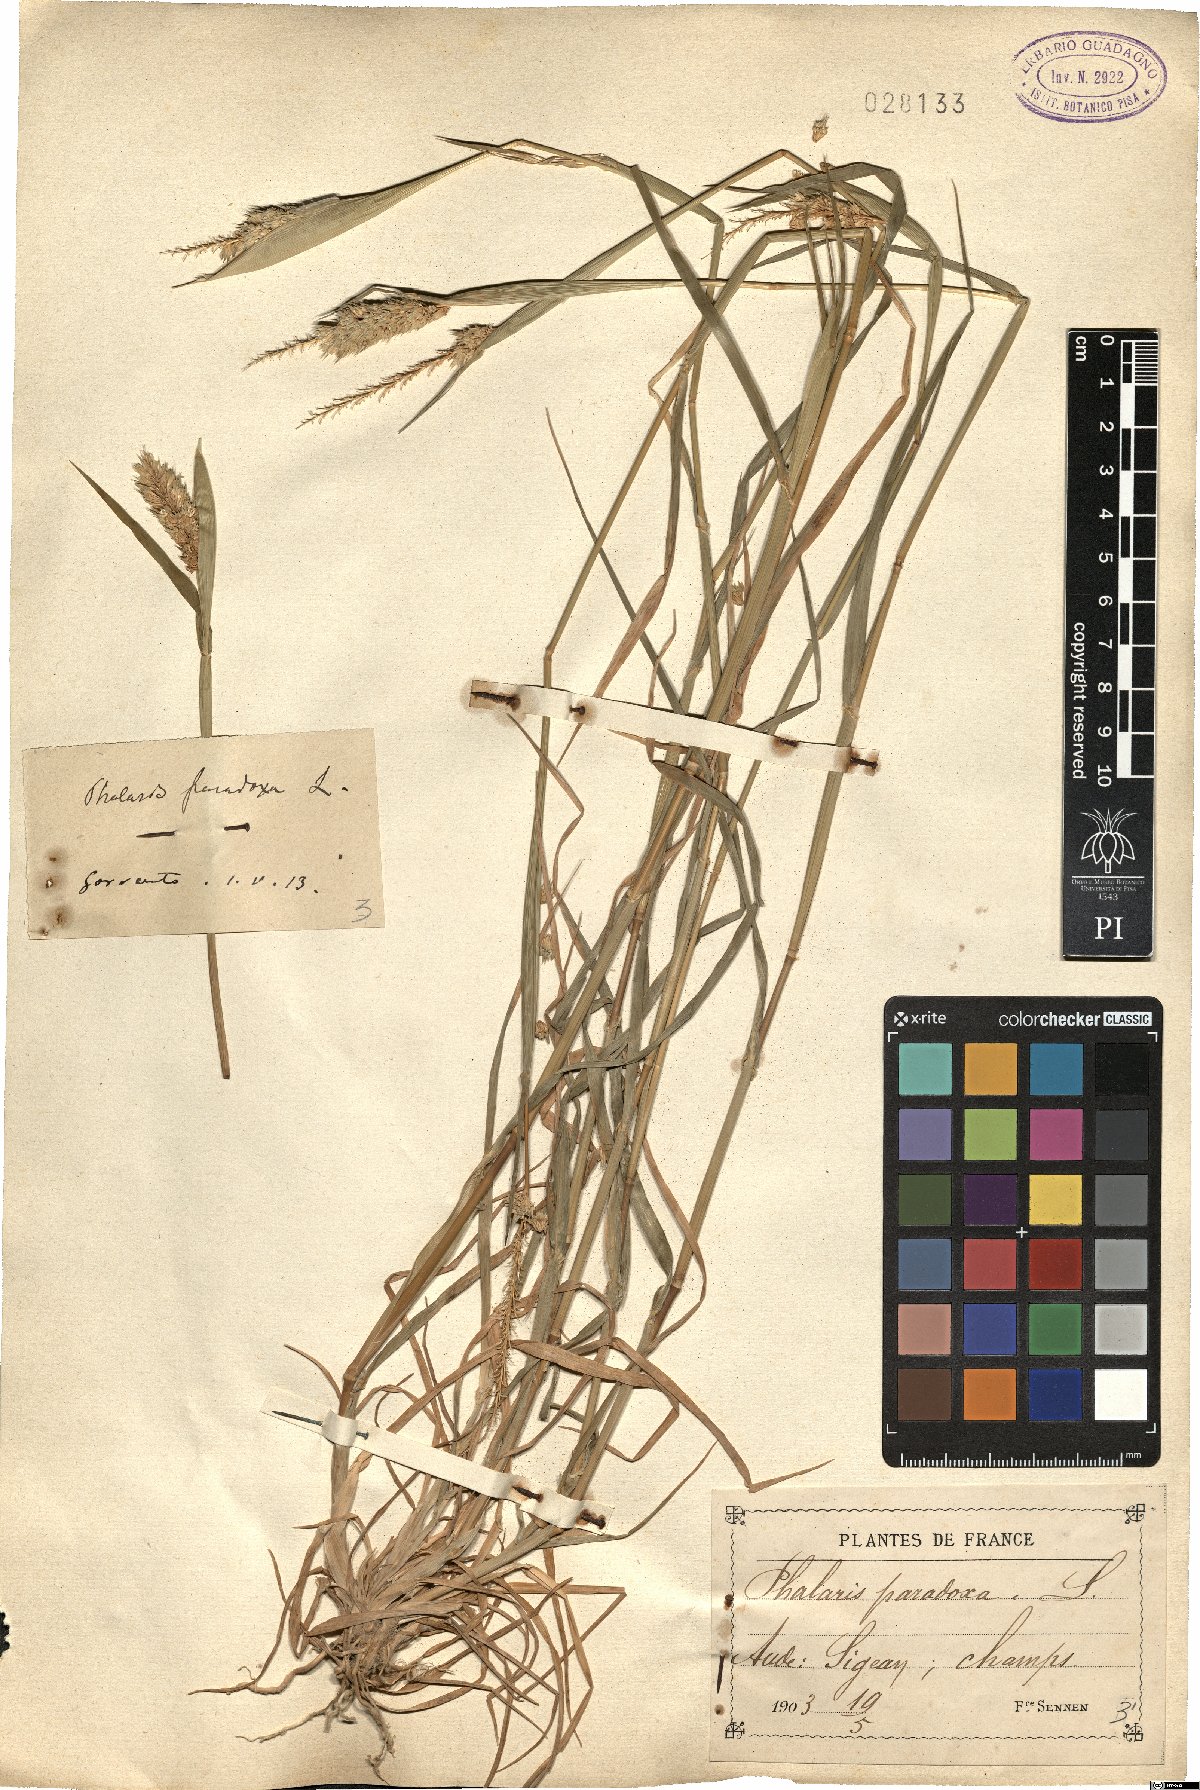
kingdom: Plantae
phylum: Tracheophyta
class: Liliopsida
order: Poales
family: Poaceae
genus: Phalaris
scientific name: Phalaris paradoxa
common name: Awned canary-grass
